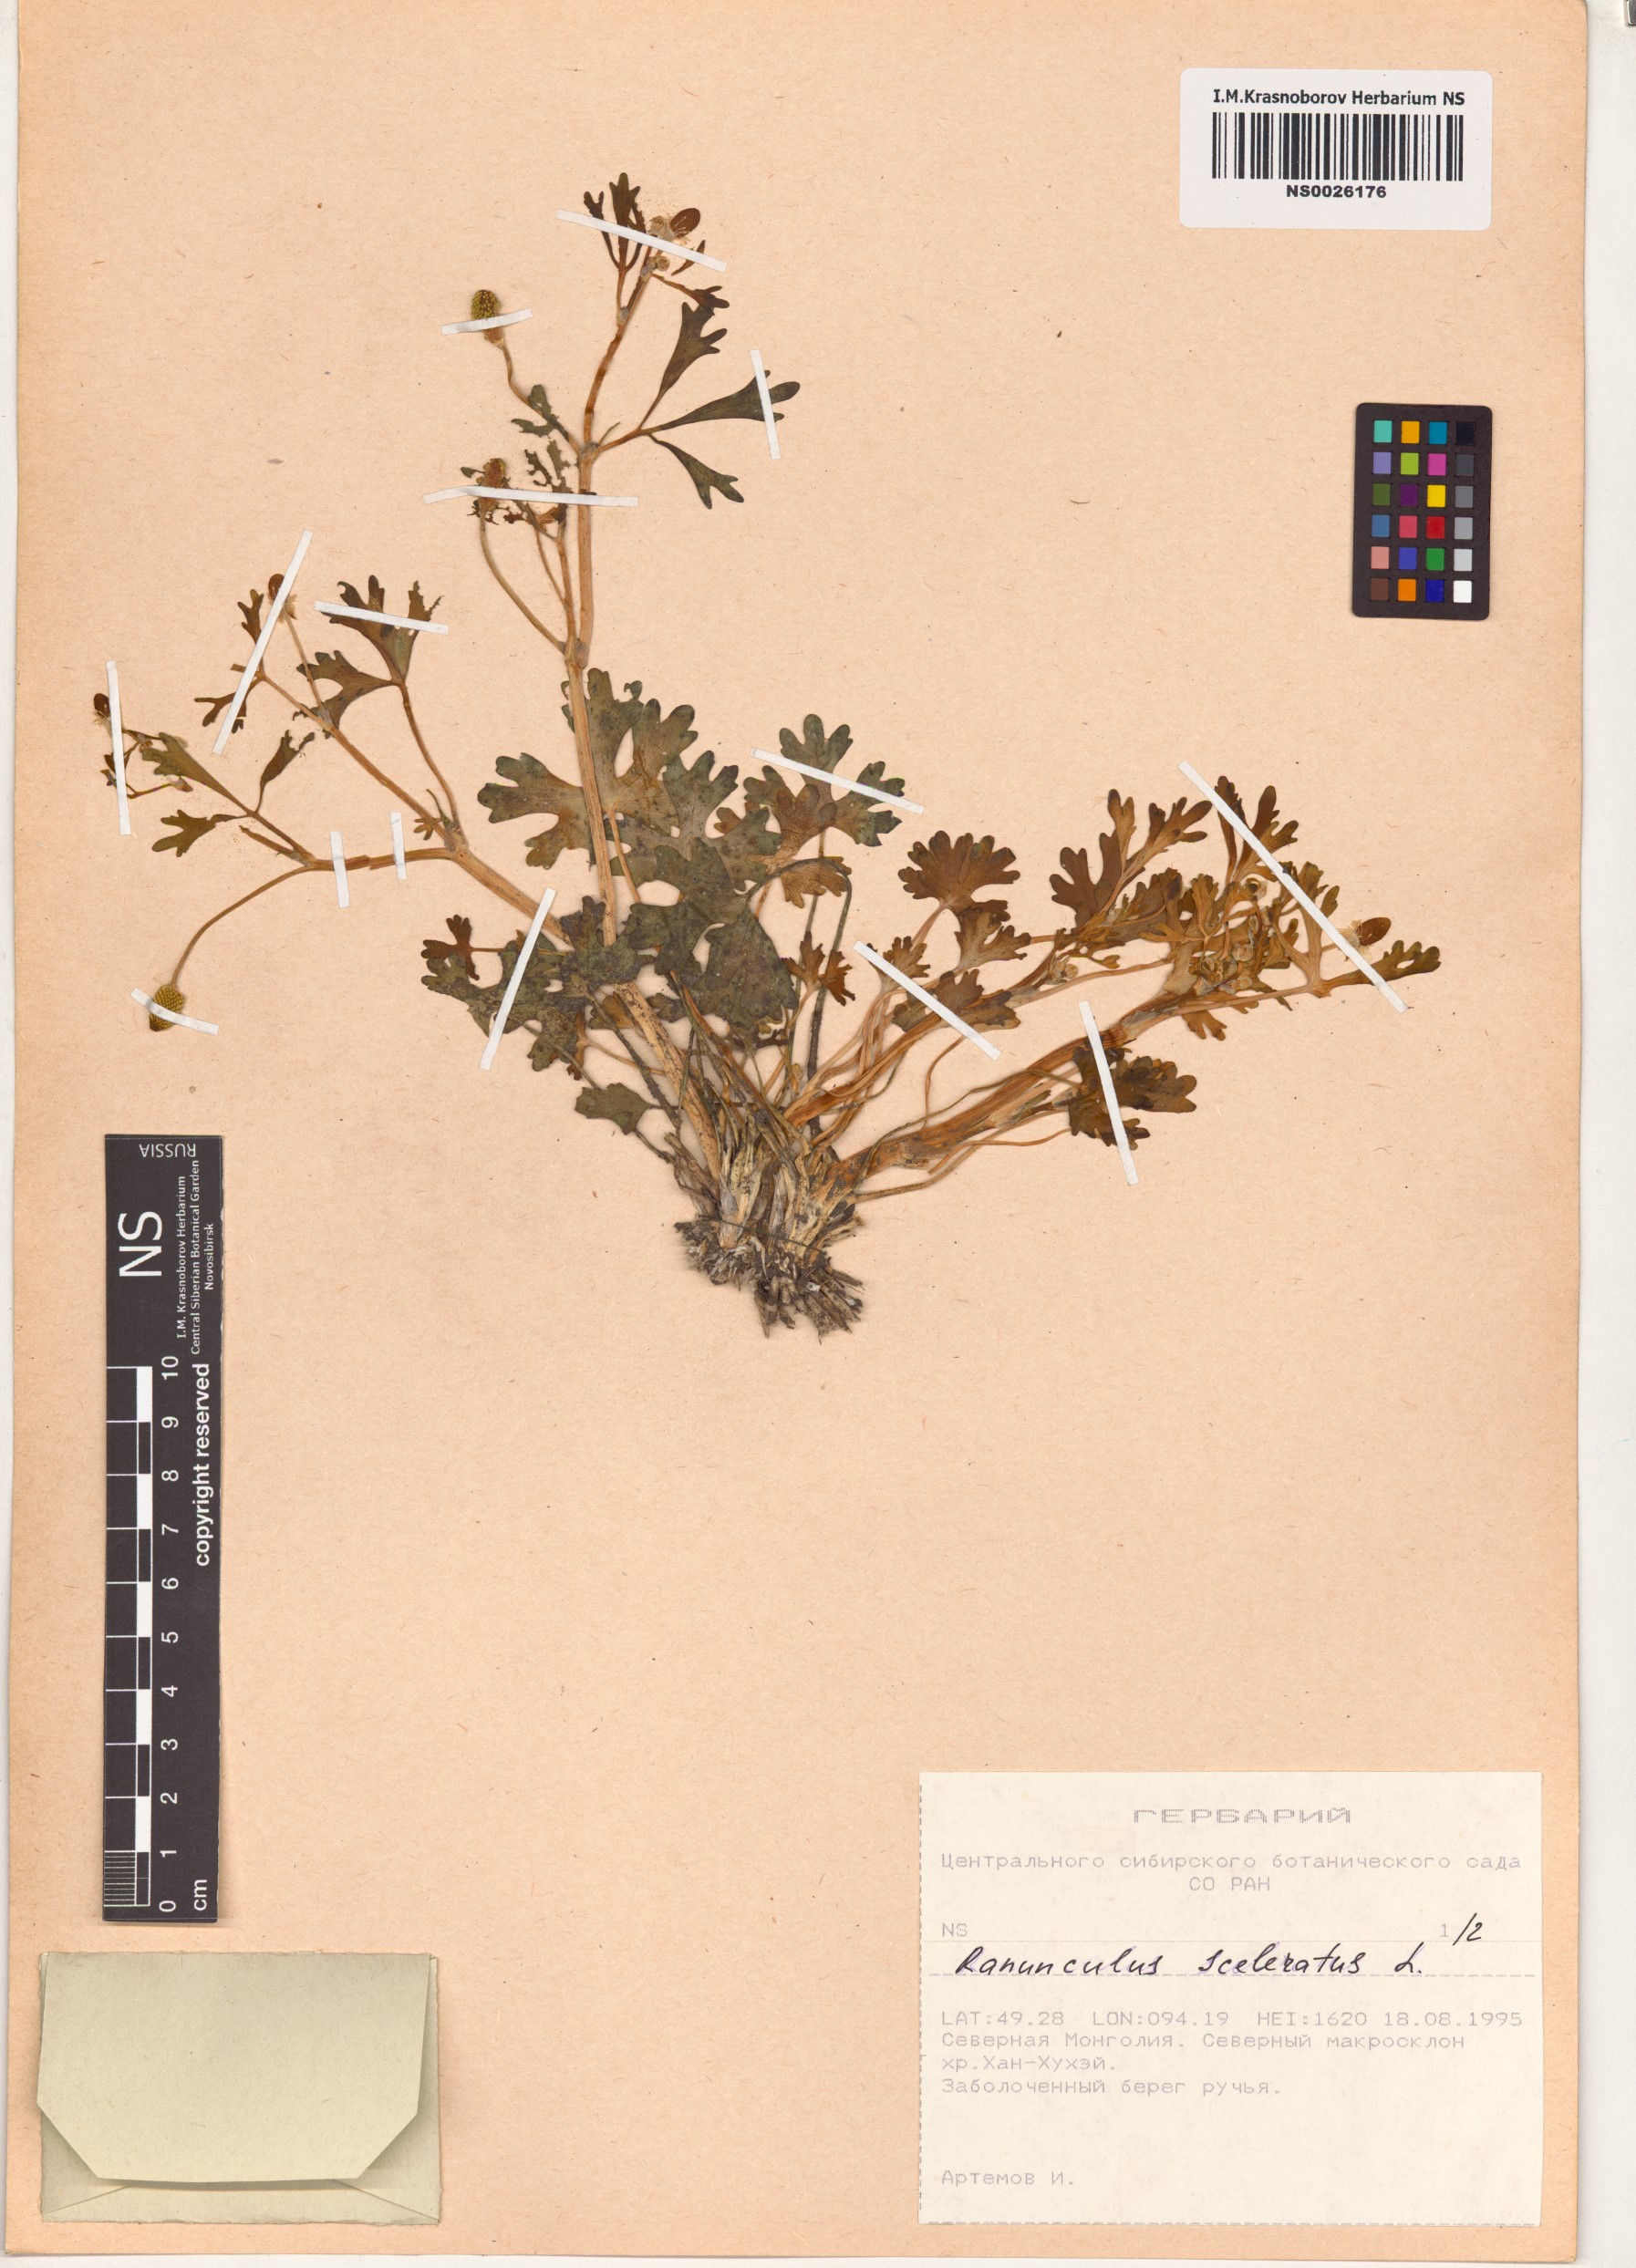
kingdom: Plantae
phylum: Tracheophyta
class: Magnoliopsida
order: Ranunculales
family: Ranunculaceae
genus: Ranunculus
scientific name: Ranunculus sceleratus
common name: Celery-leaved buttercup
